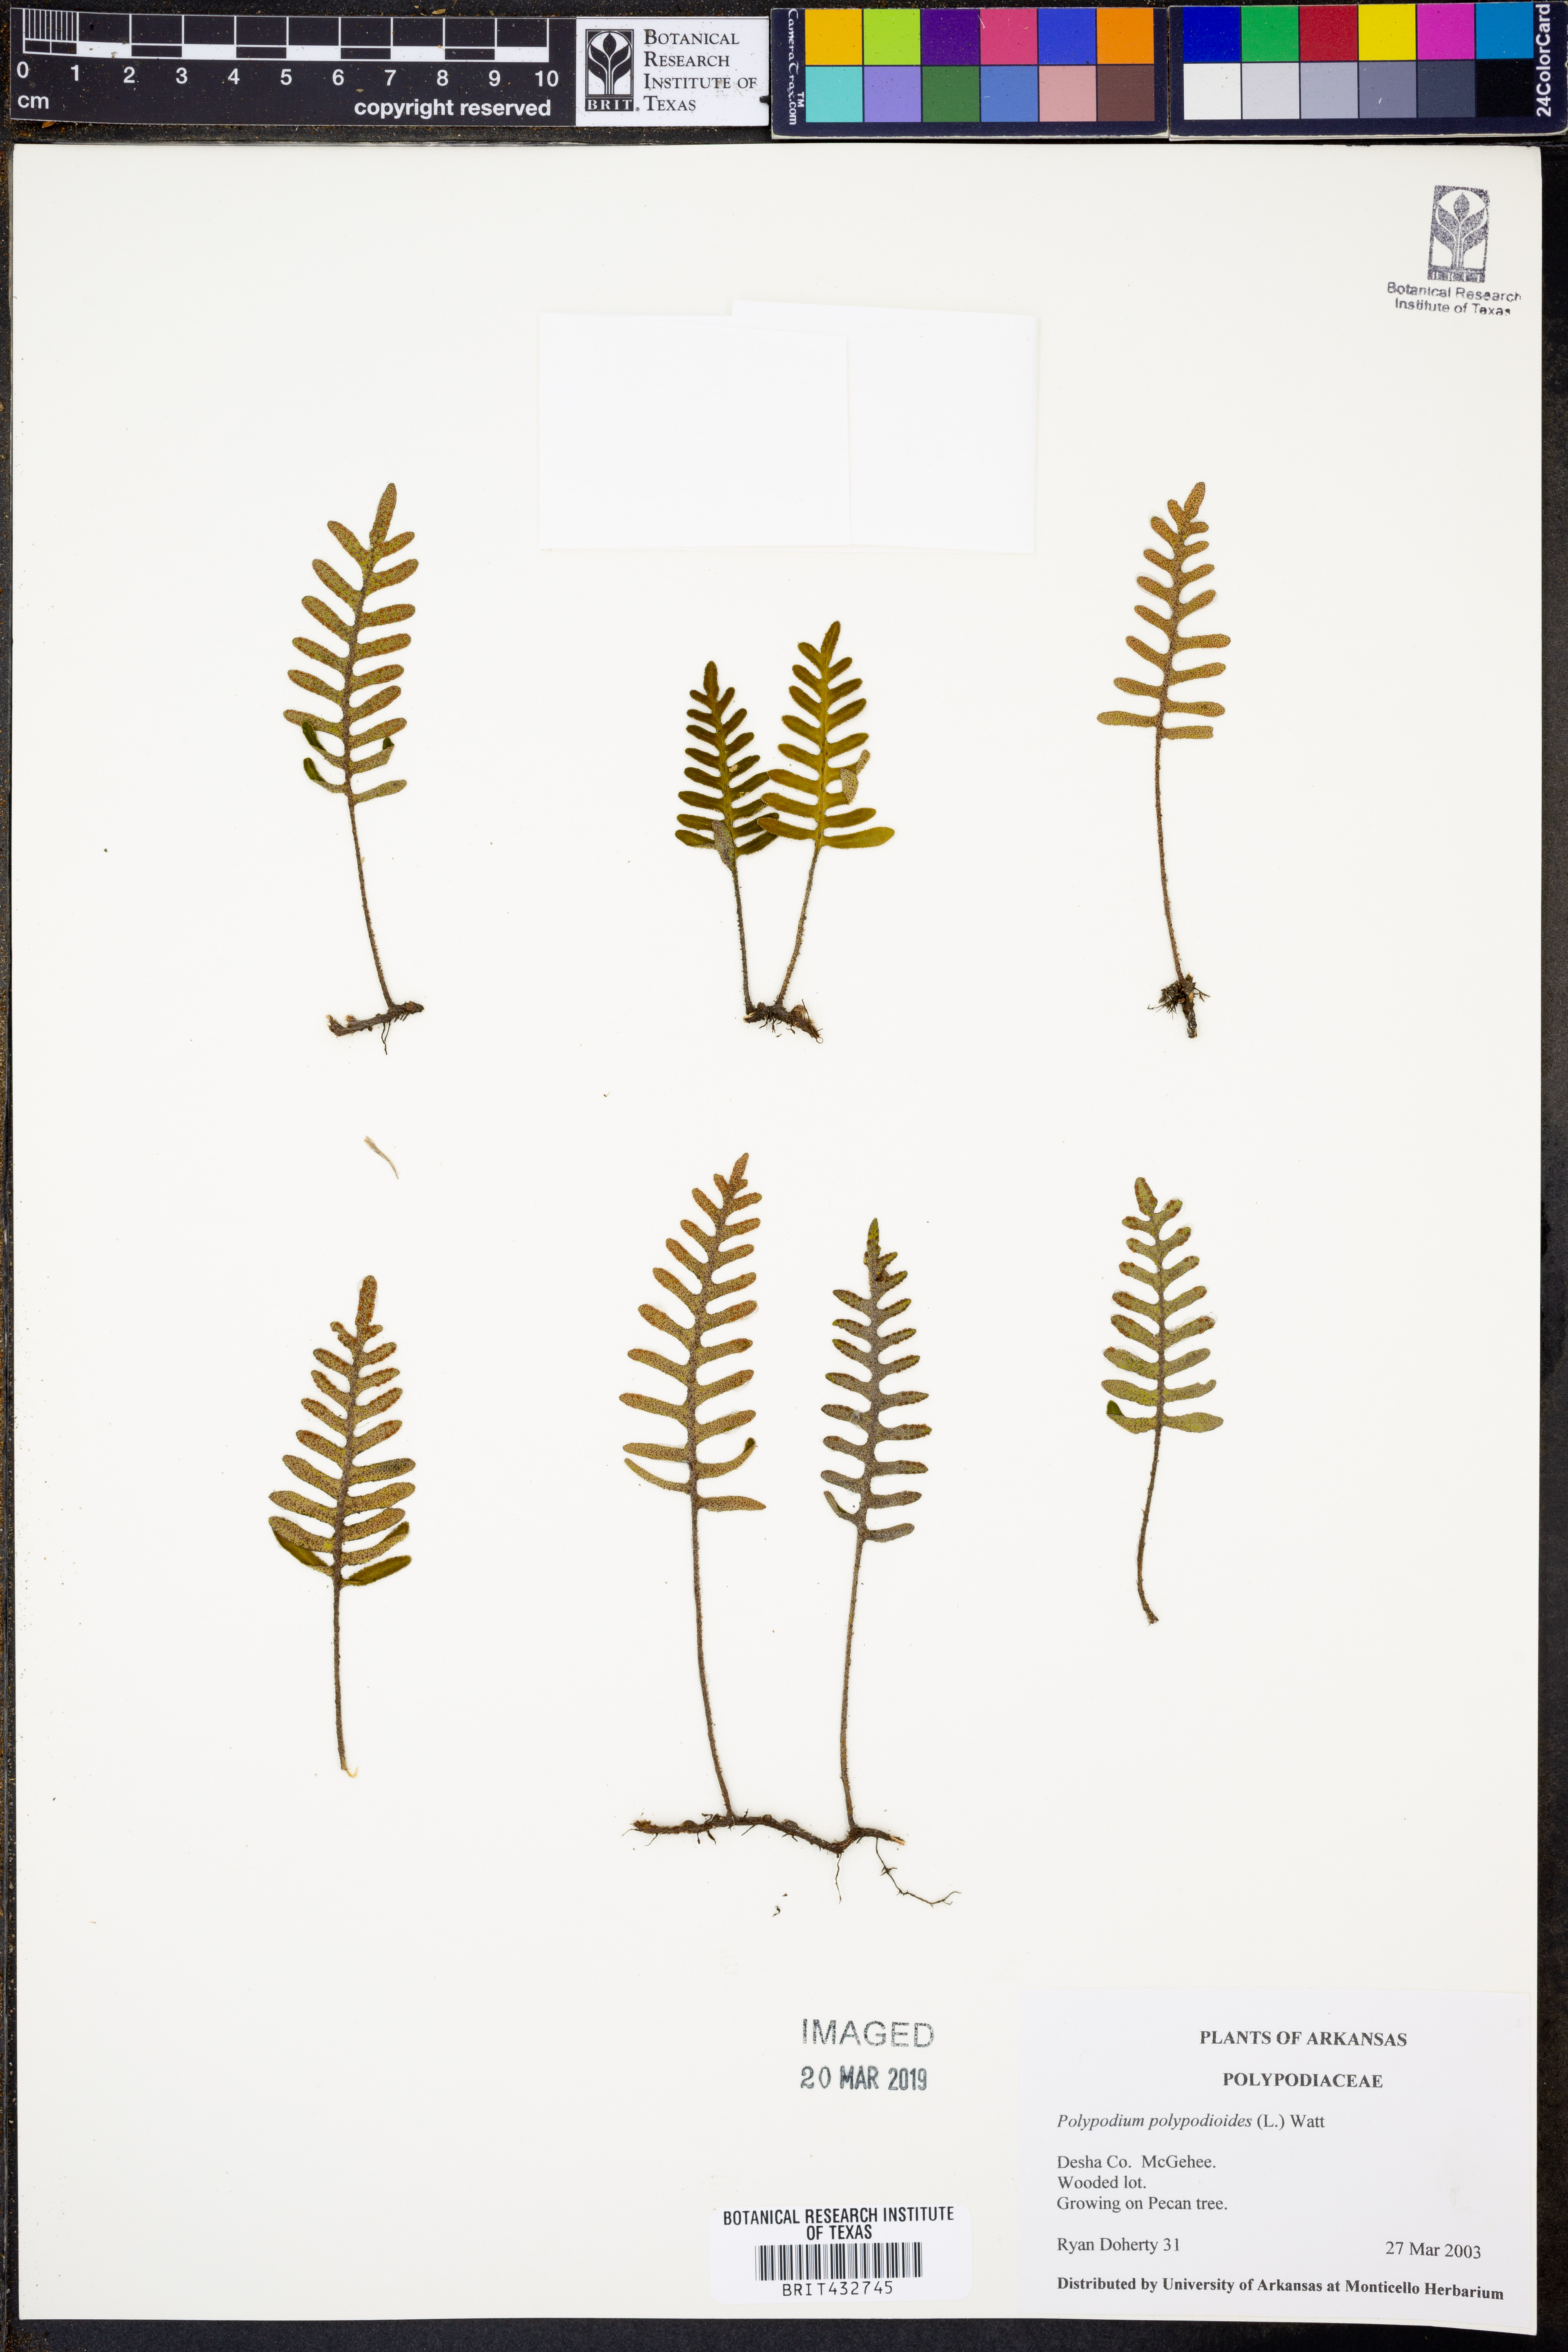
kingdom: Plantae
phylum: Tracheophyta
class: Polypodiopsida
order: Polypodiales
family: Polypodiaceae
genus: Pleopeltis
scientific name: Pleopeltis polypodioides
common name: Resurrection fern
